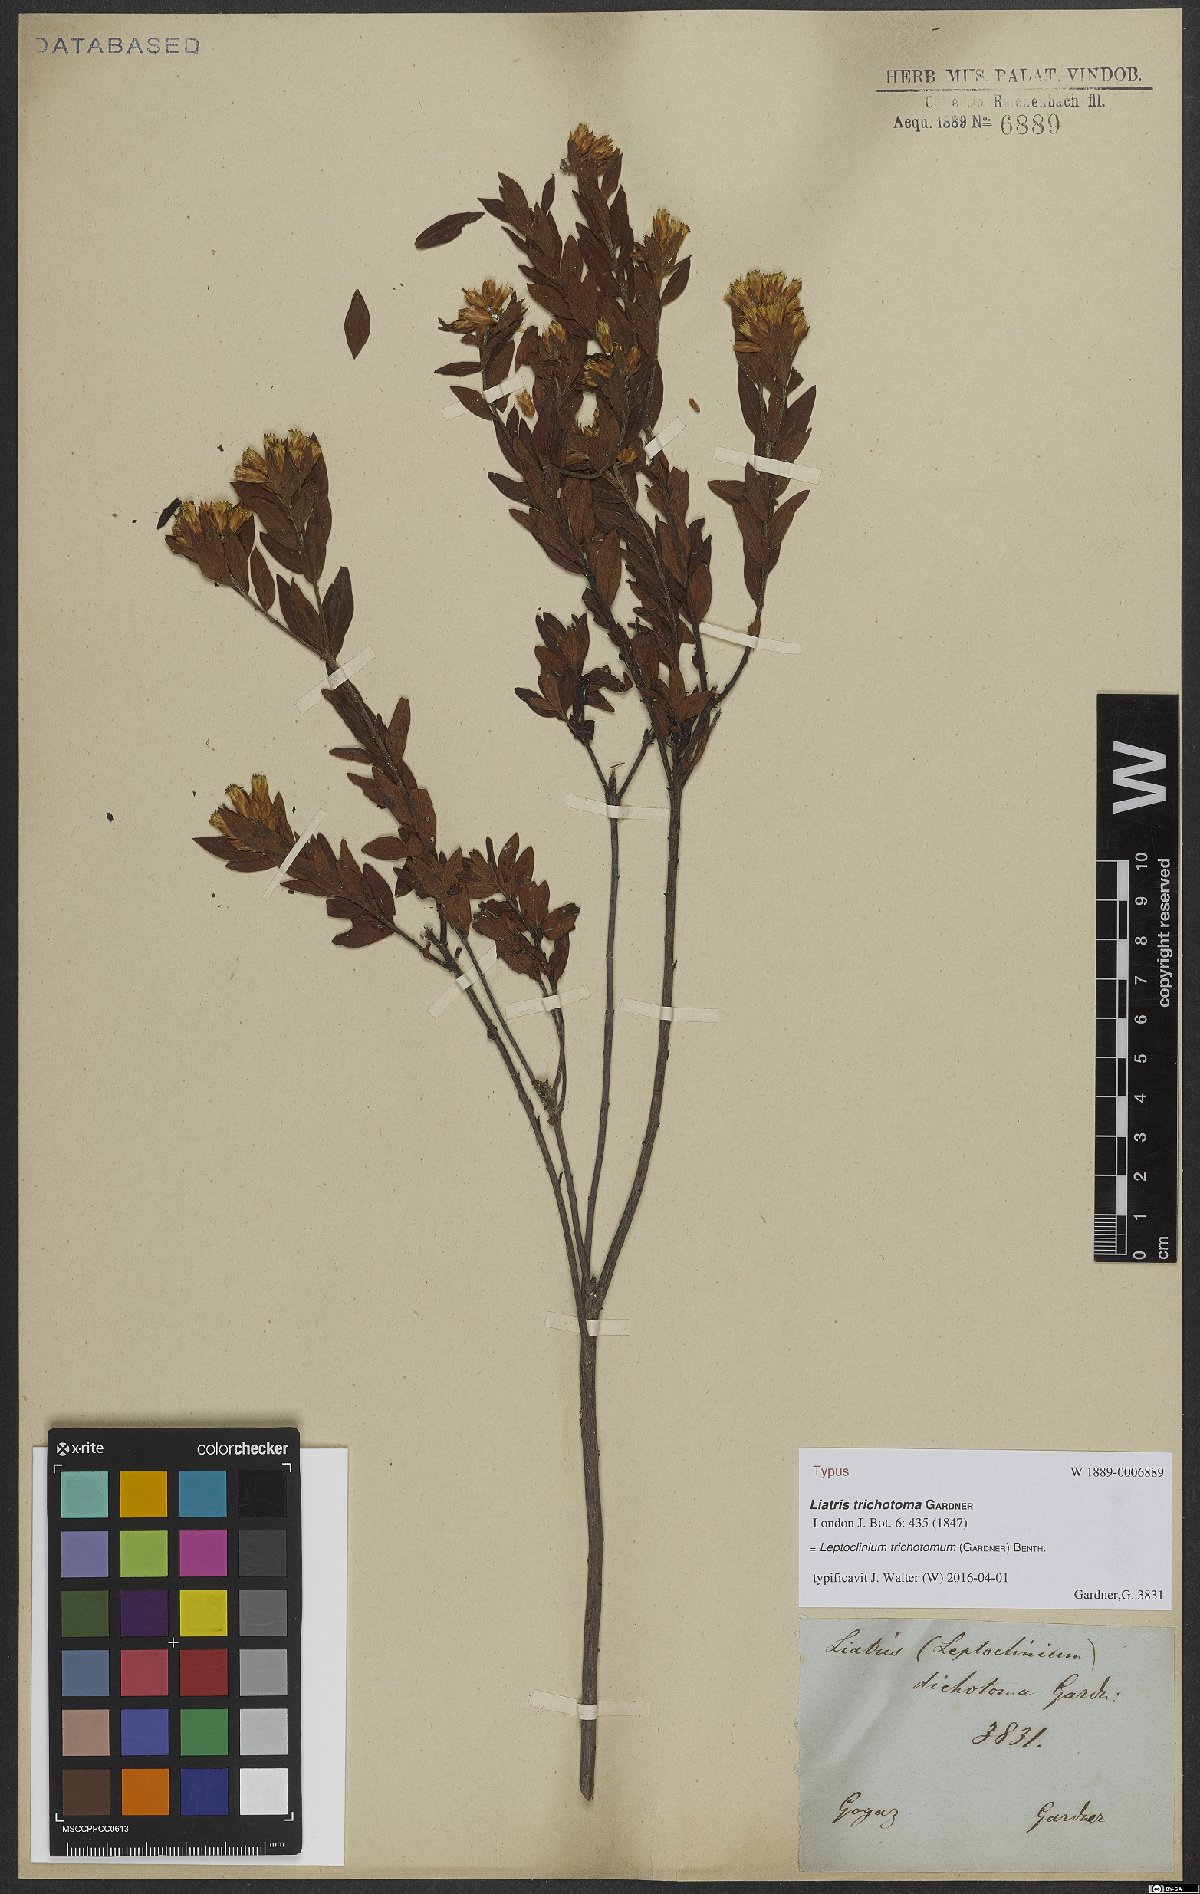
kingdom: Plantae
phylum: Tracheophyta
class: Magnoliopsida
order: Asterales
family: Asteraceae
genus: Leptoclinium
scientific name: Leptoclinium trichotomum
